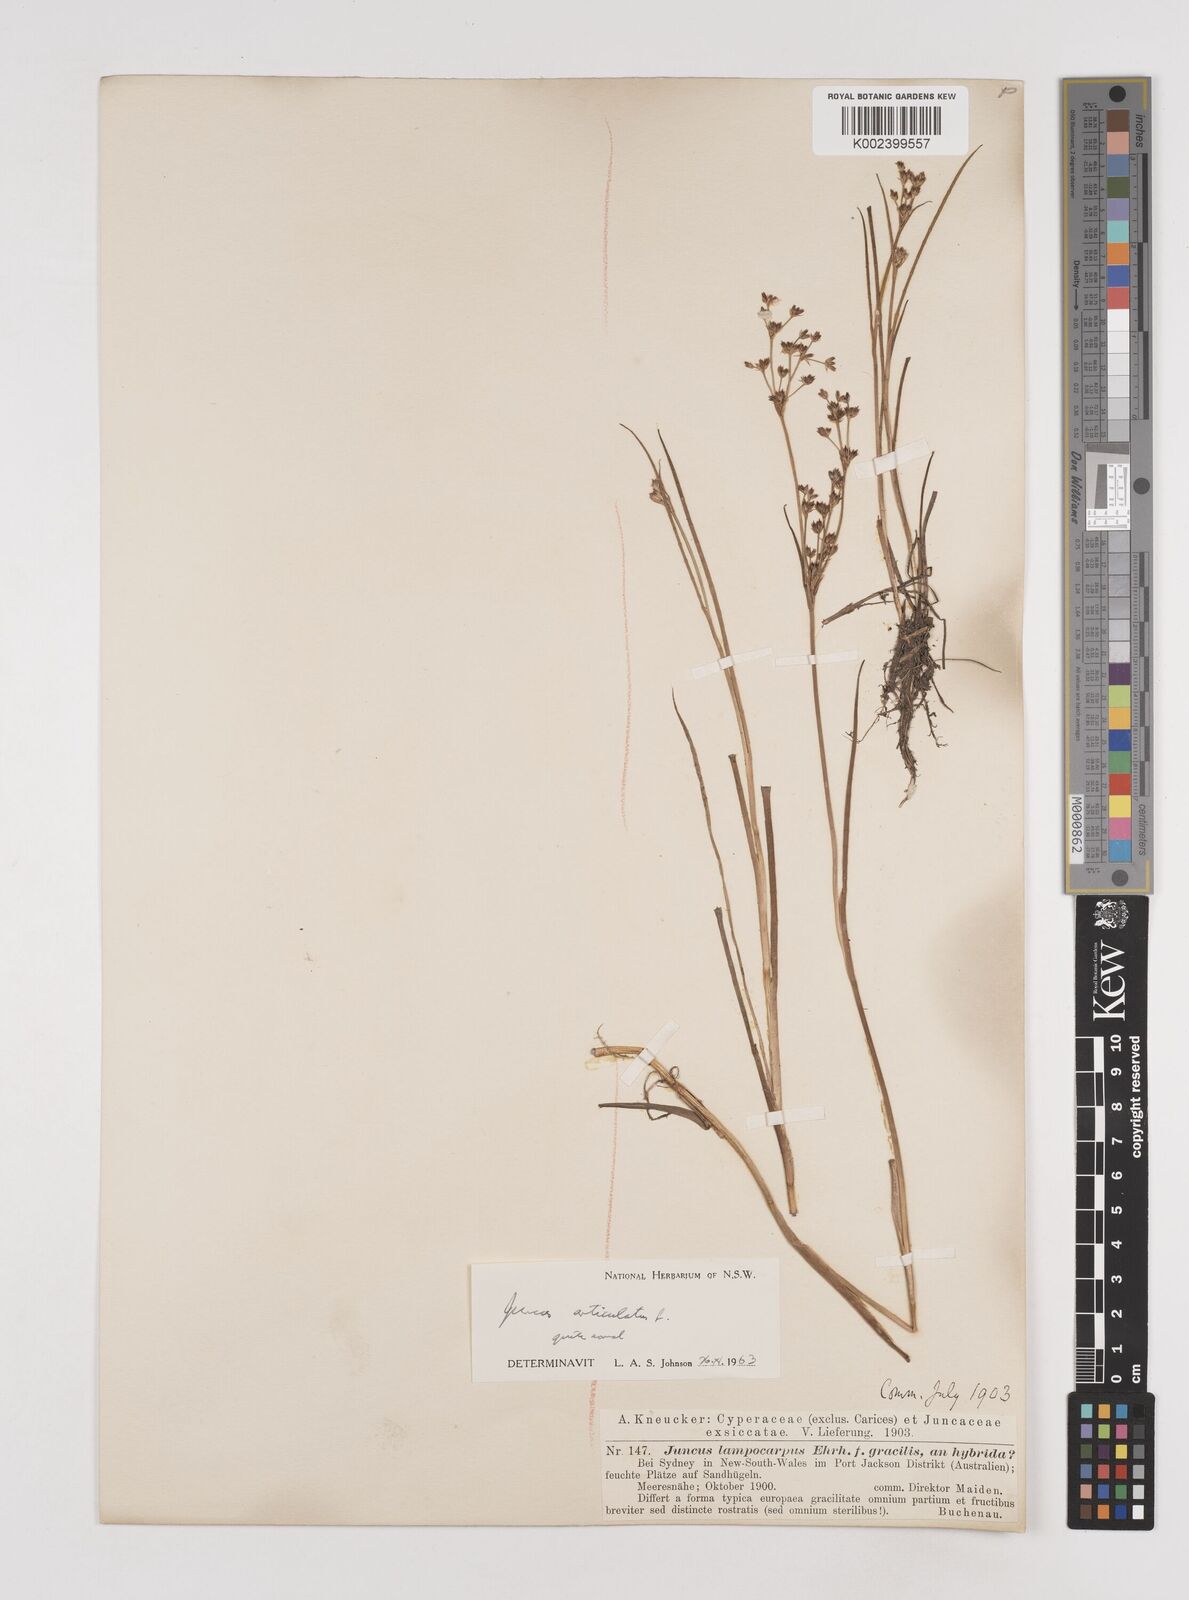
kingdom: Plantae
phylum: Tracheophyta
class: Liliopsida
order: Poales
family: Juncaceae
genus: Juncus
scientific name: Juncus articulatus
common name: Jointed rush
